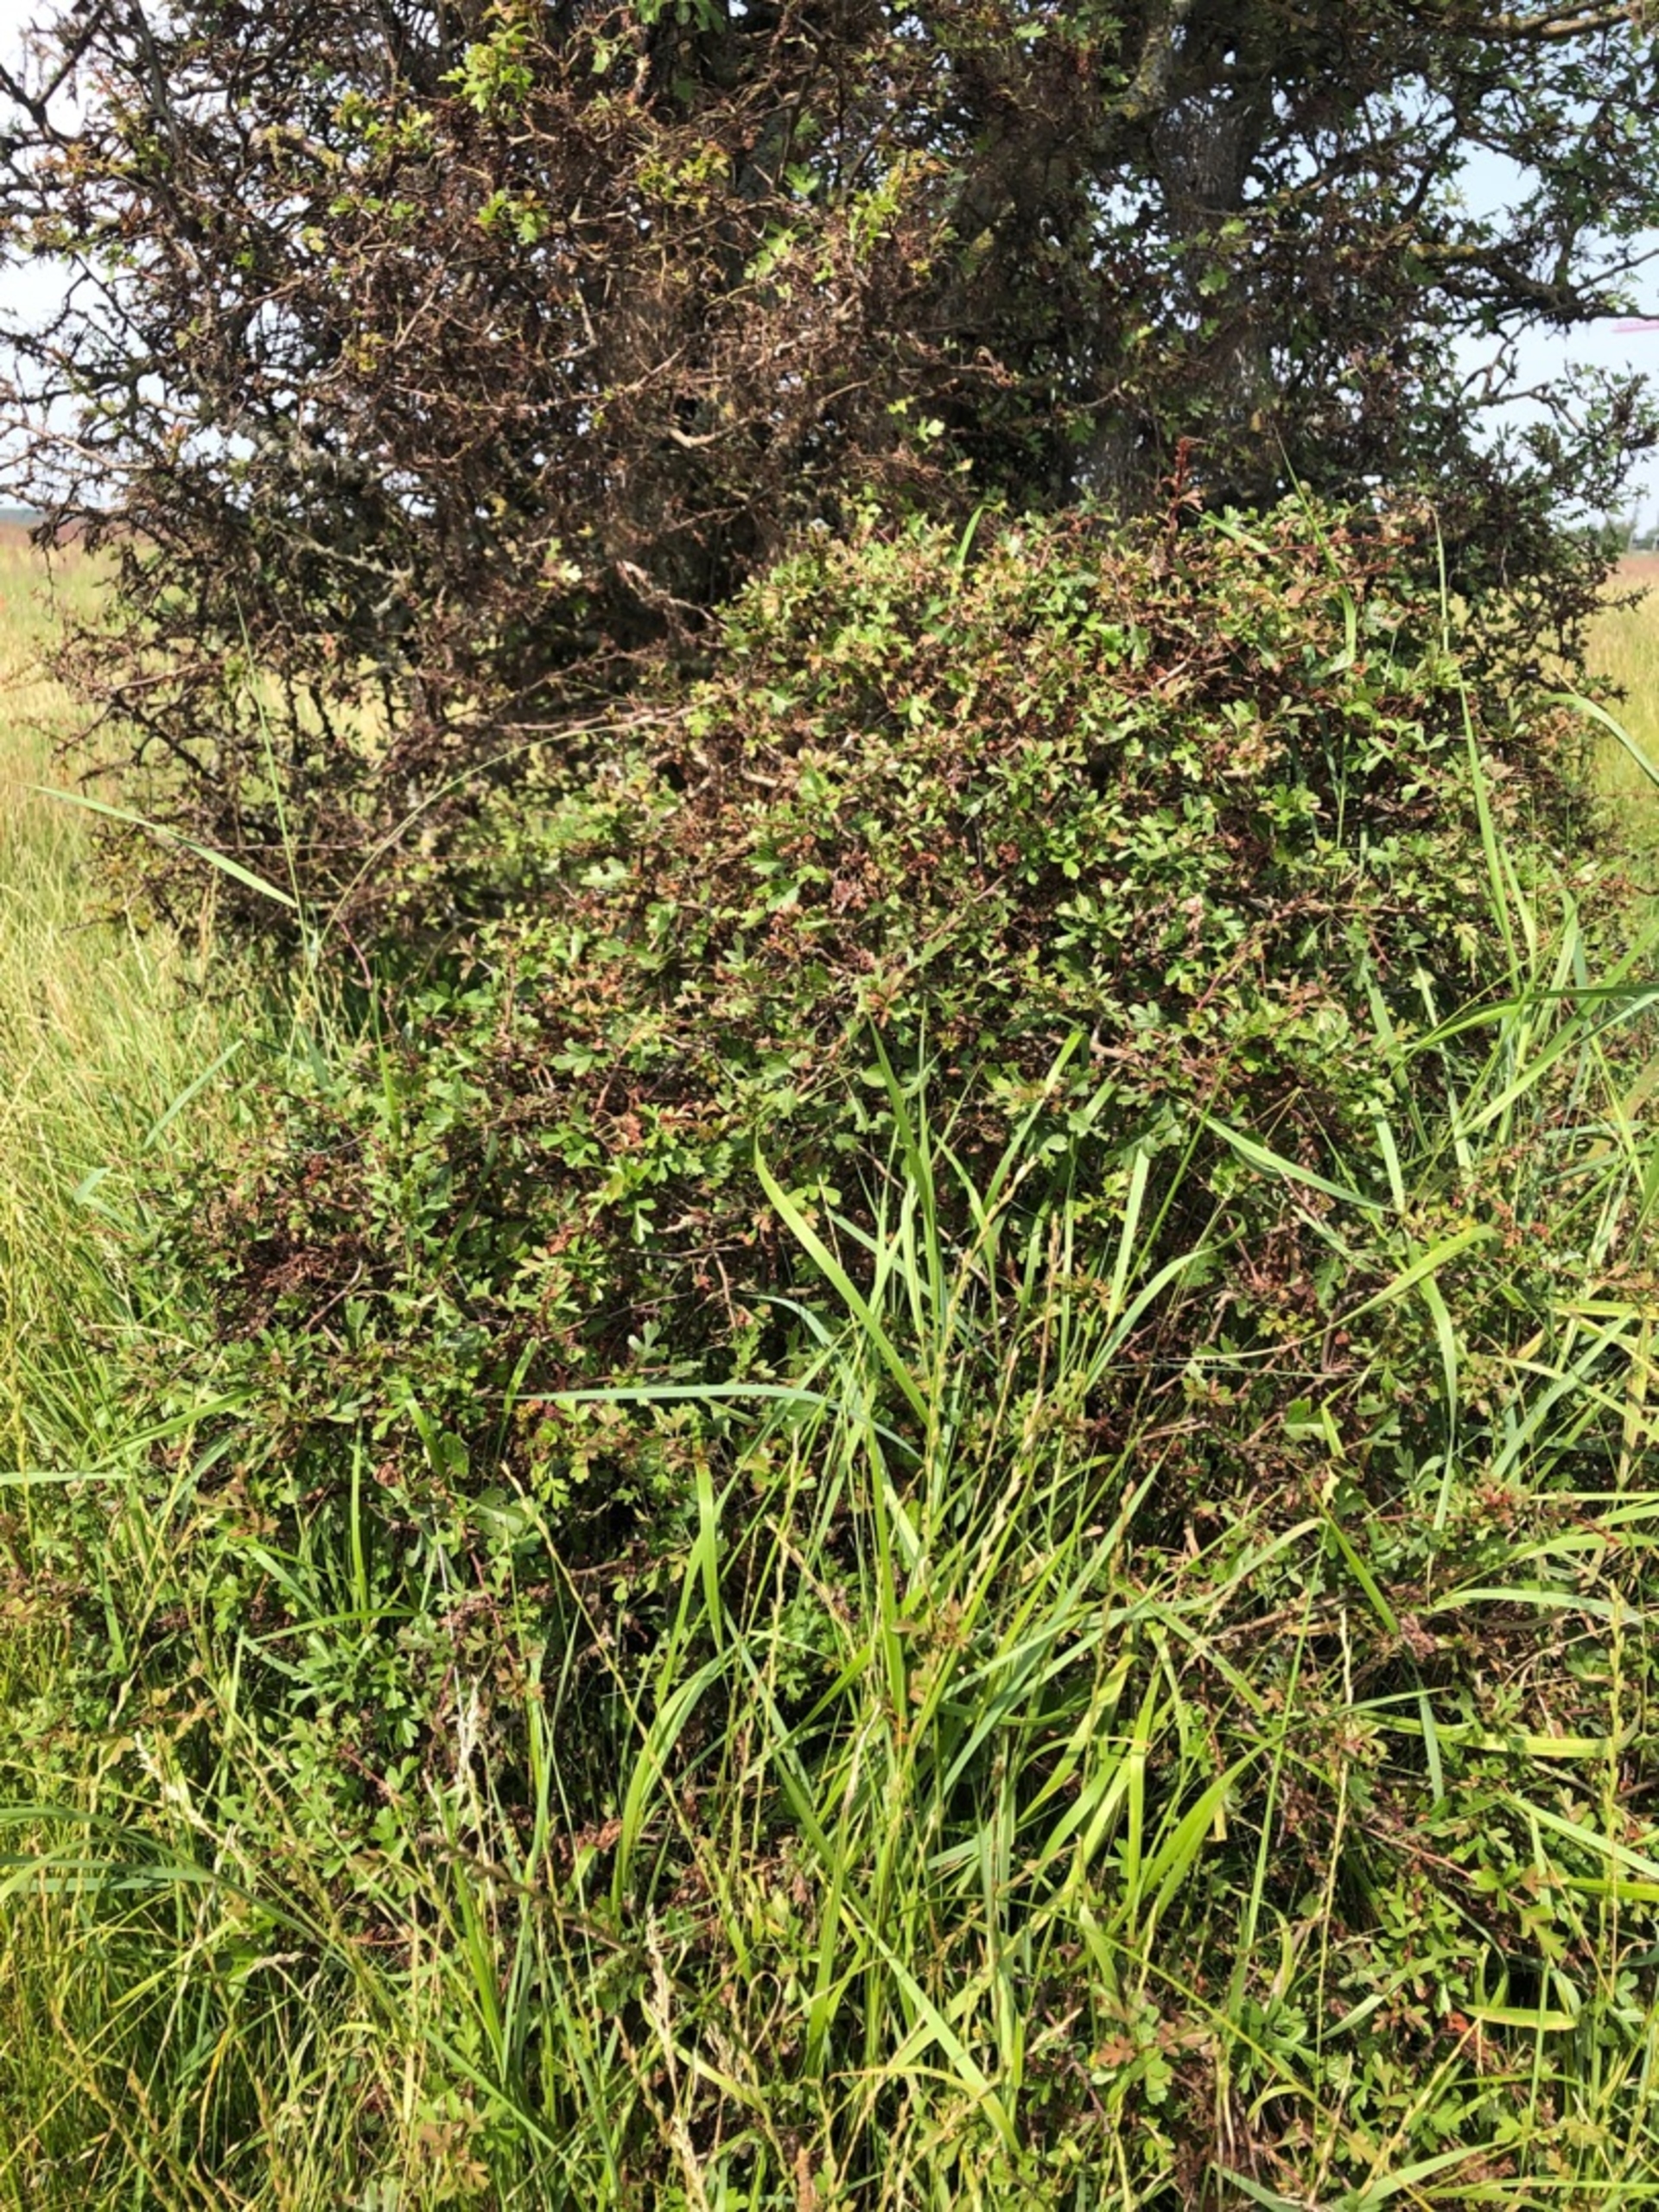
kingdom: Plantae
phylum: Tracheophyta
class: Magnoliopsida
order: Rosales
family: Rosaceae
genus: Crataegus
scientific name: Crataegus monogyna
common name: Engriflet hvidtjørn
